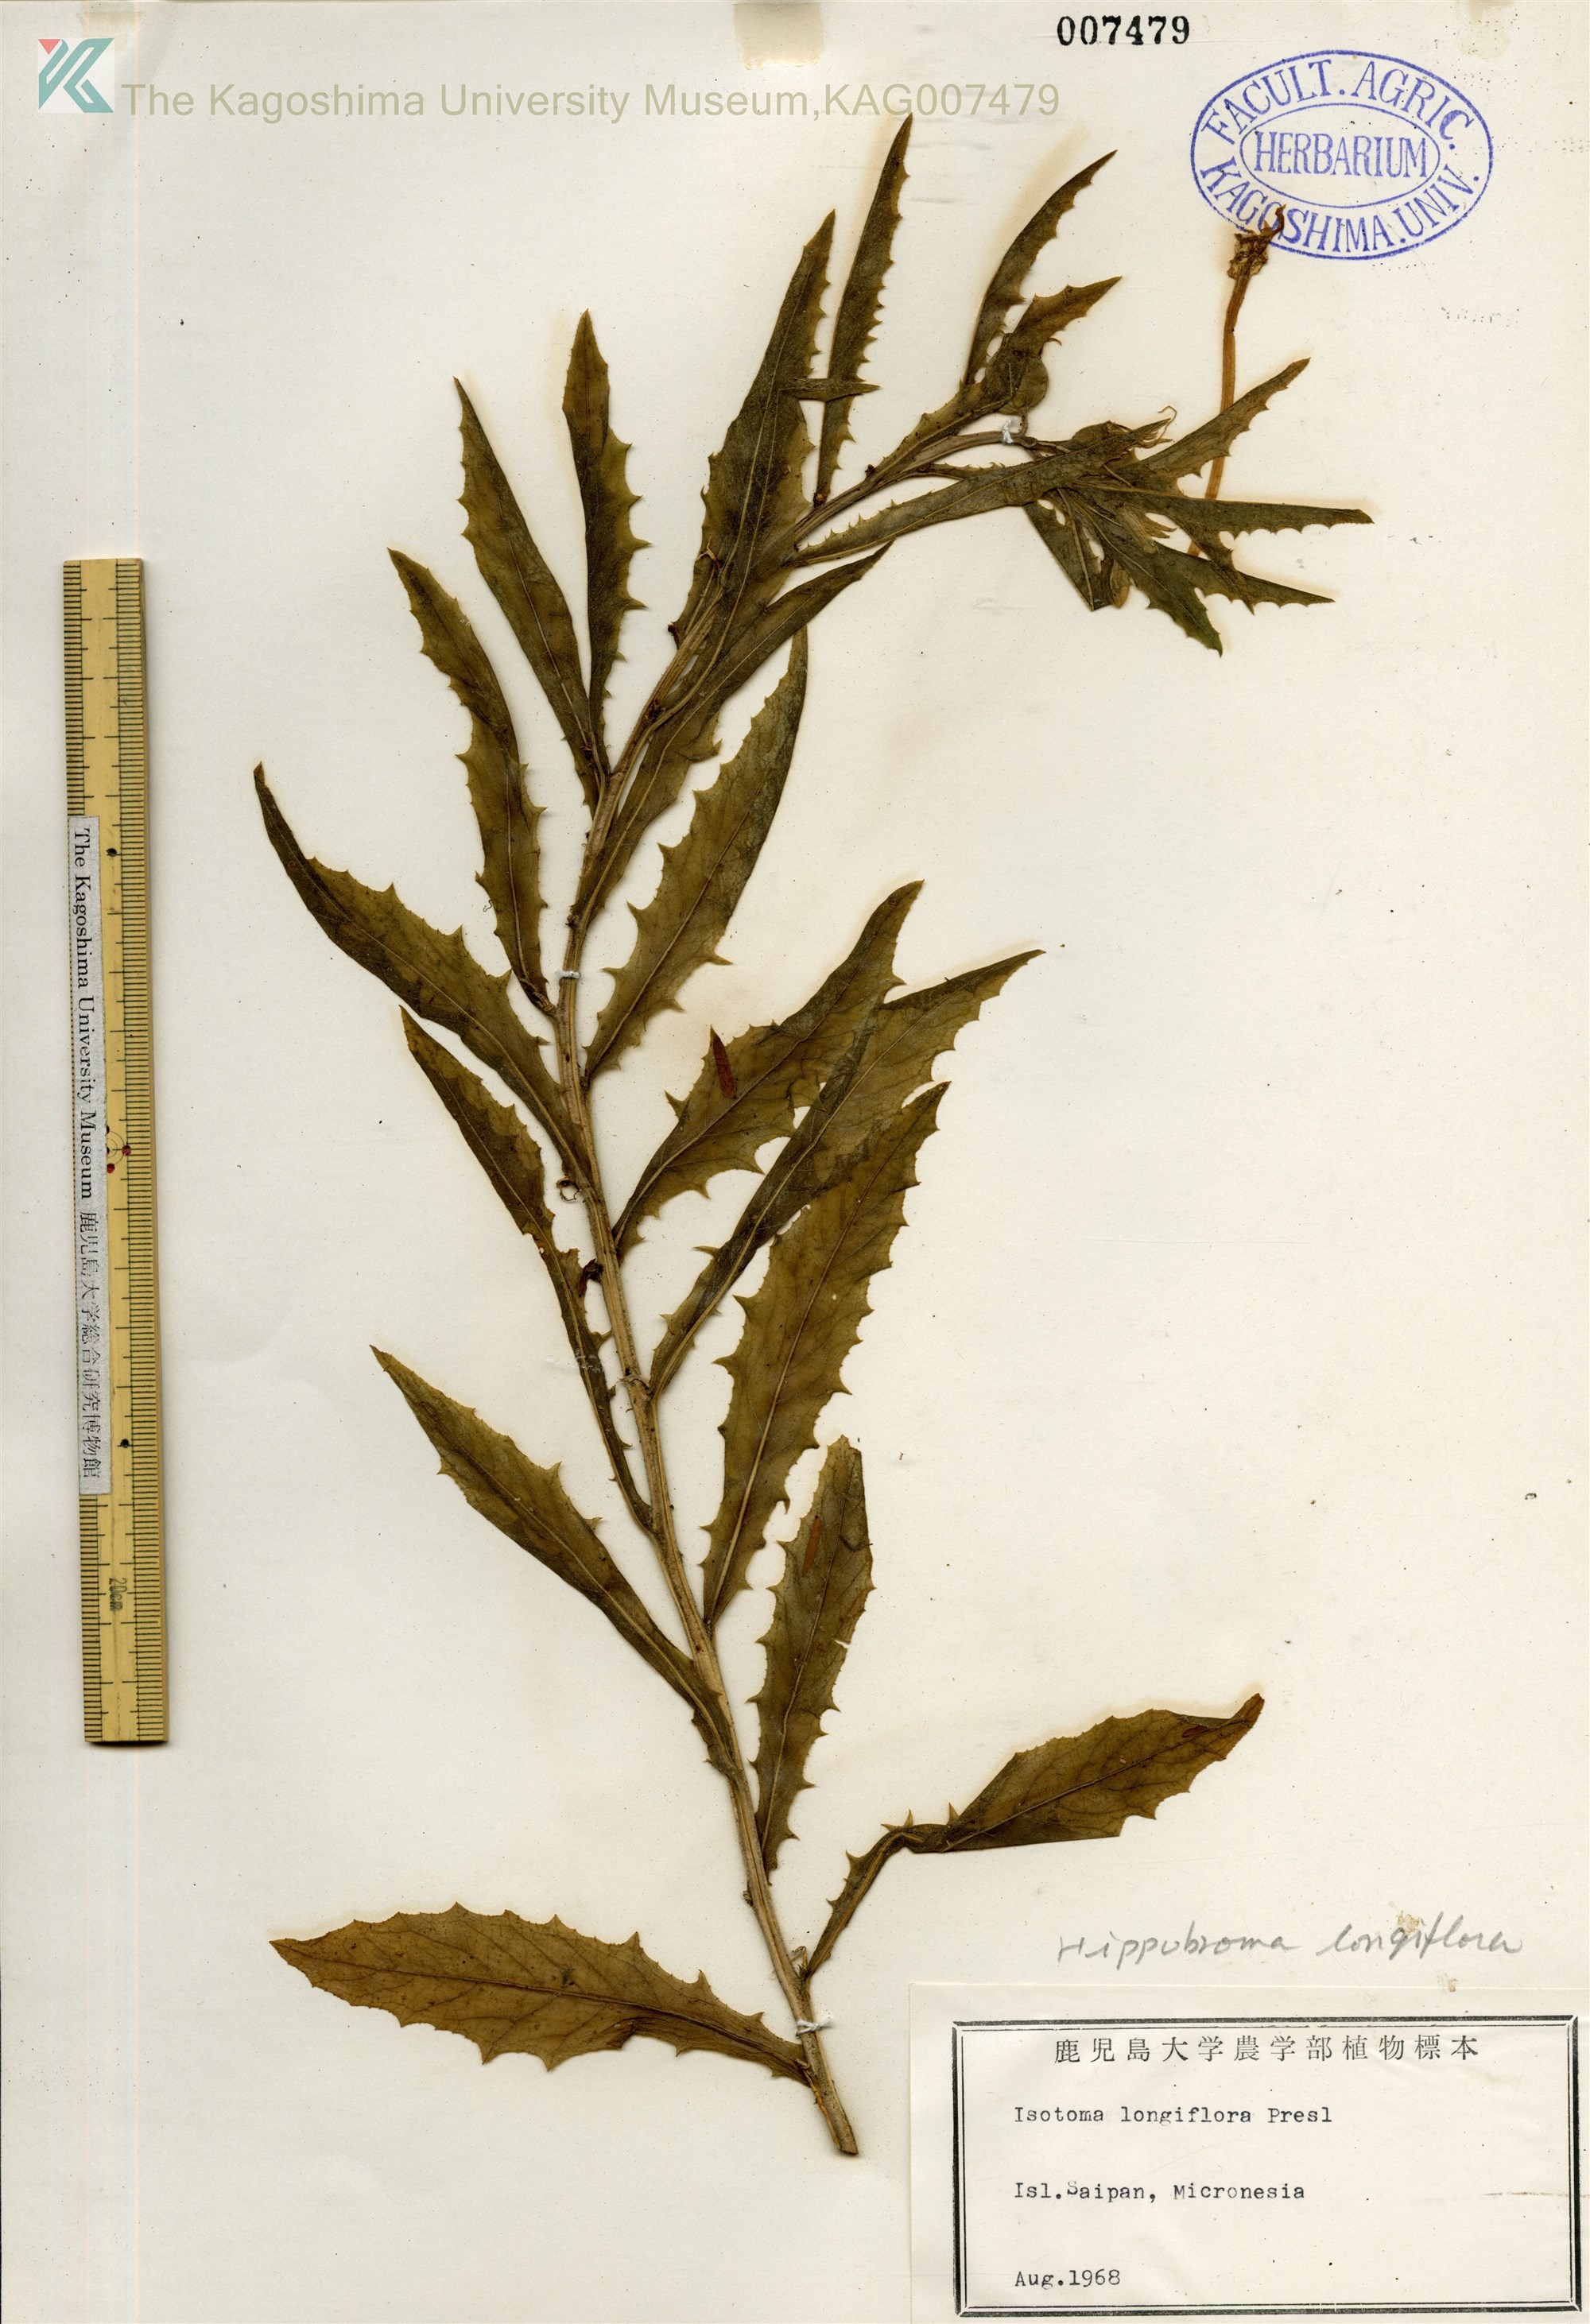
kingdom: Plantae
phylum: Tracheophyta
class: Magnoliopsida
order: Asterales
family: Campanulaceae
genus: Hippobroma
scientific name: Hippobroma longiflora
